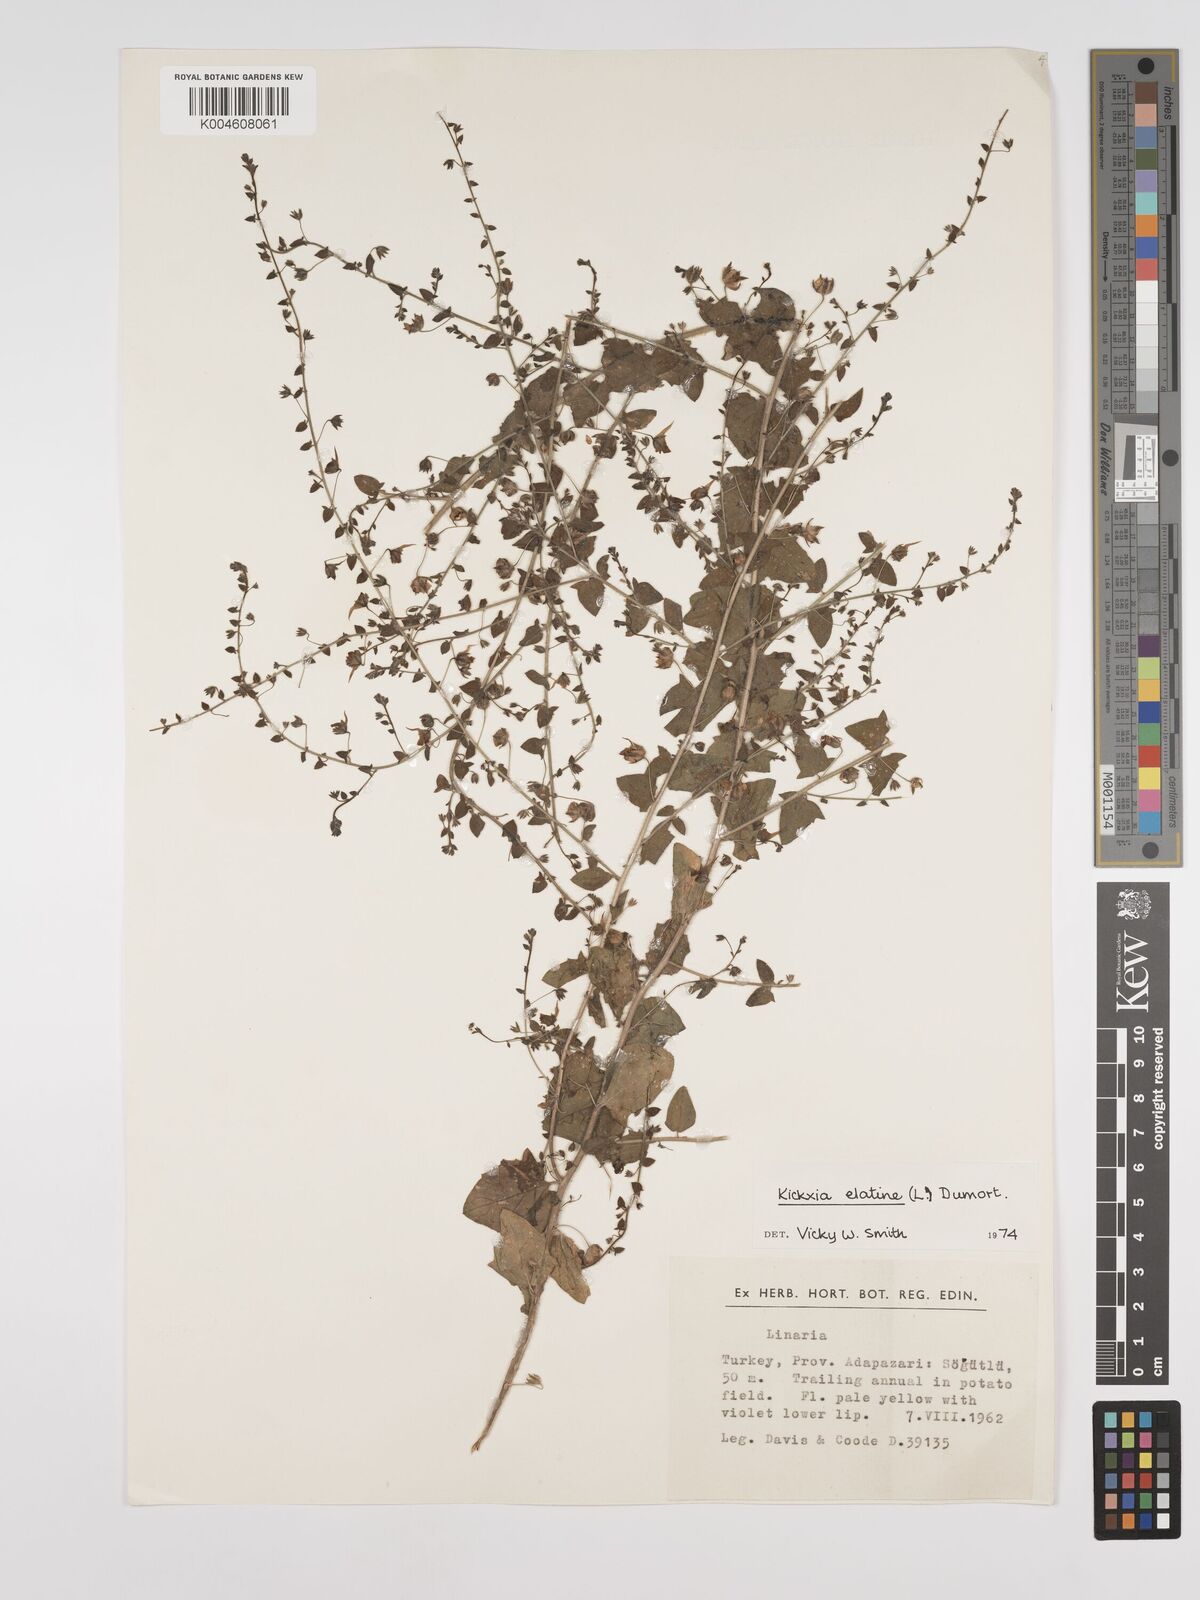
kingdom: Plantae
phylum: Tracheophyta
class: Magnoliopsida
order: Lamiales
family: Plantaginaceae
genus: Kickxia
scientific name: Kickxia elatine
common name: Sharp-leaved fluellen
